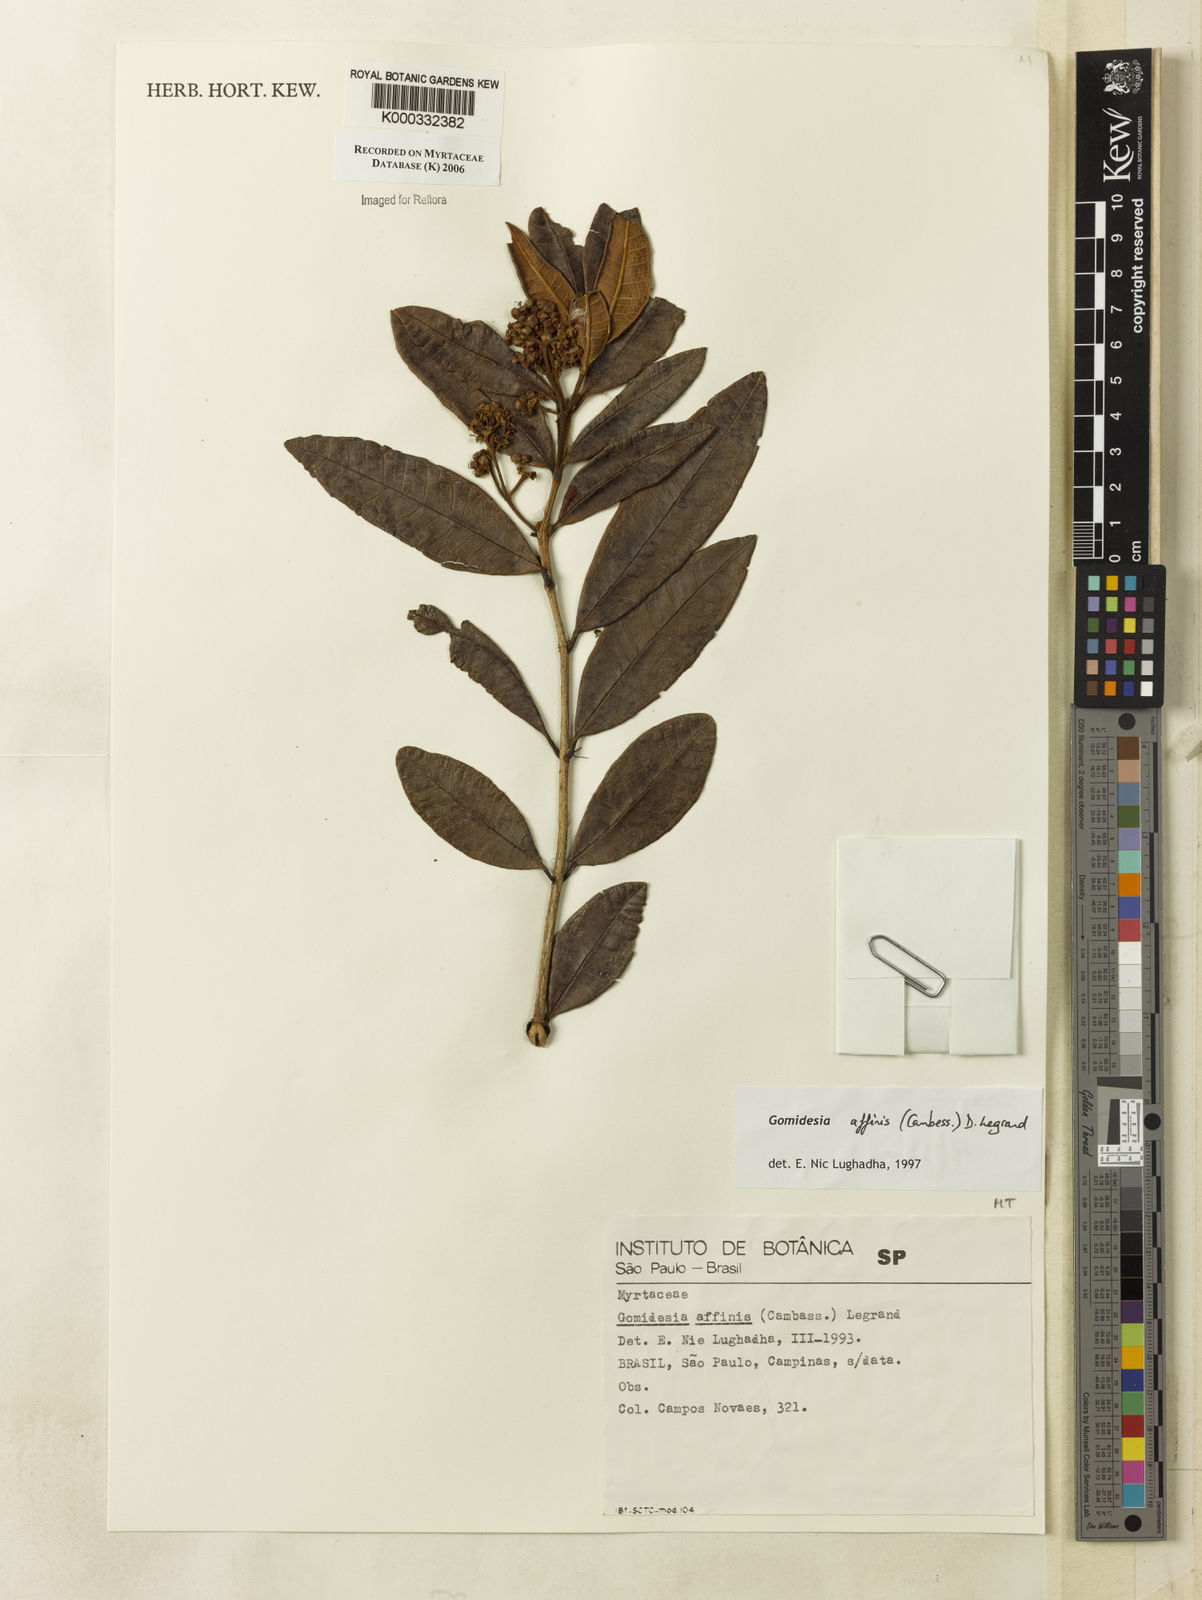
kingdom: Plantae
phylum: Tracheophyta
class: Magnoliopsida
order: Myrtales
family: Myrtaceae
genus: Myrcia
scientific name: Myrcia hebepetala
